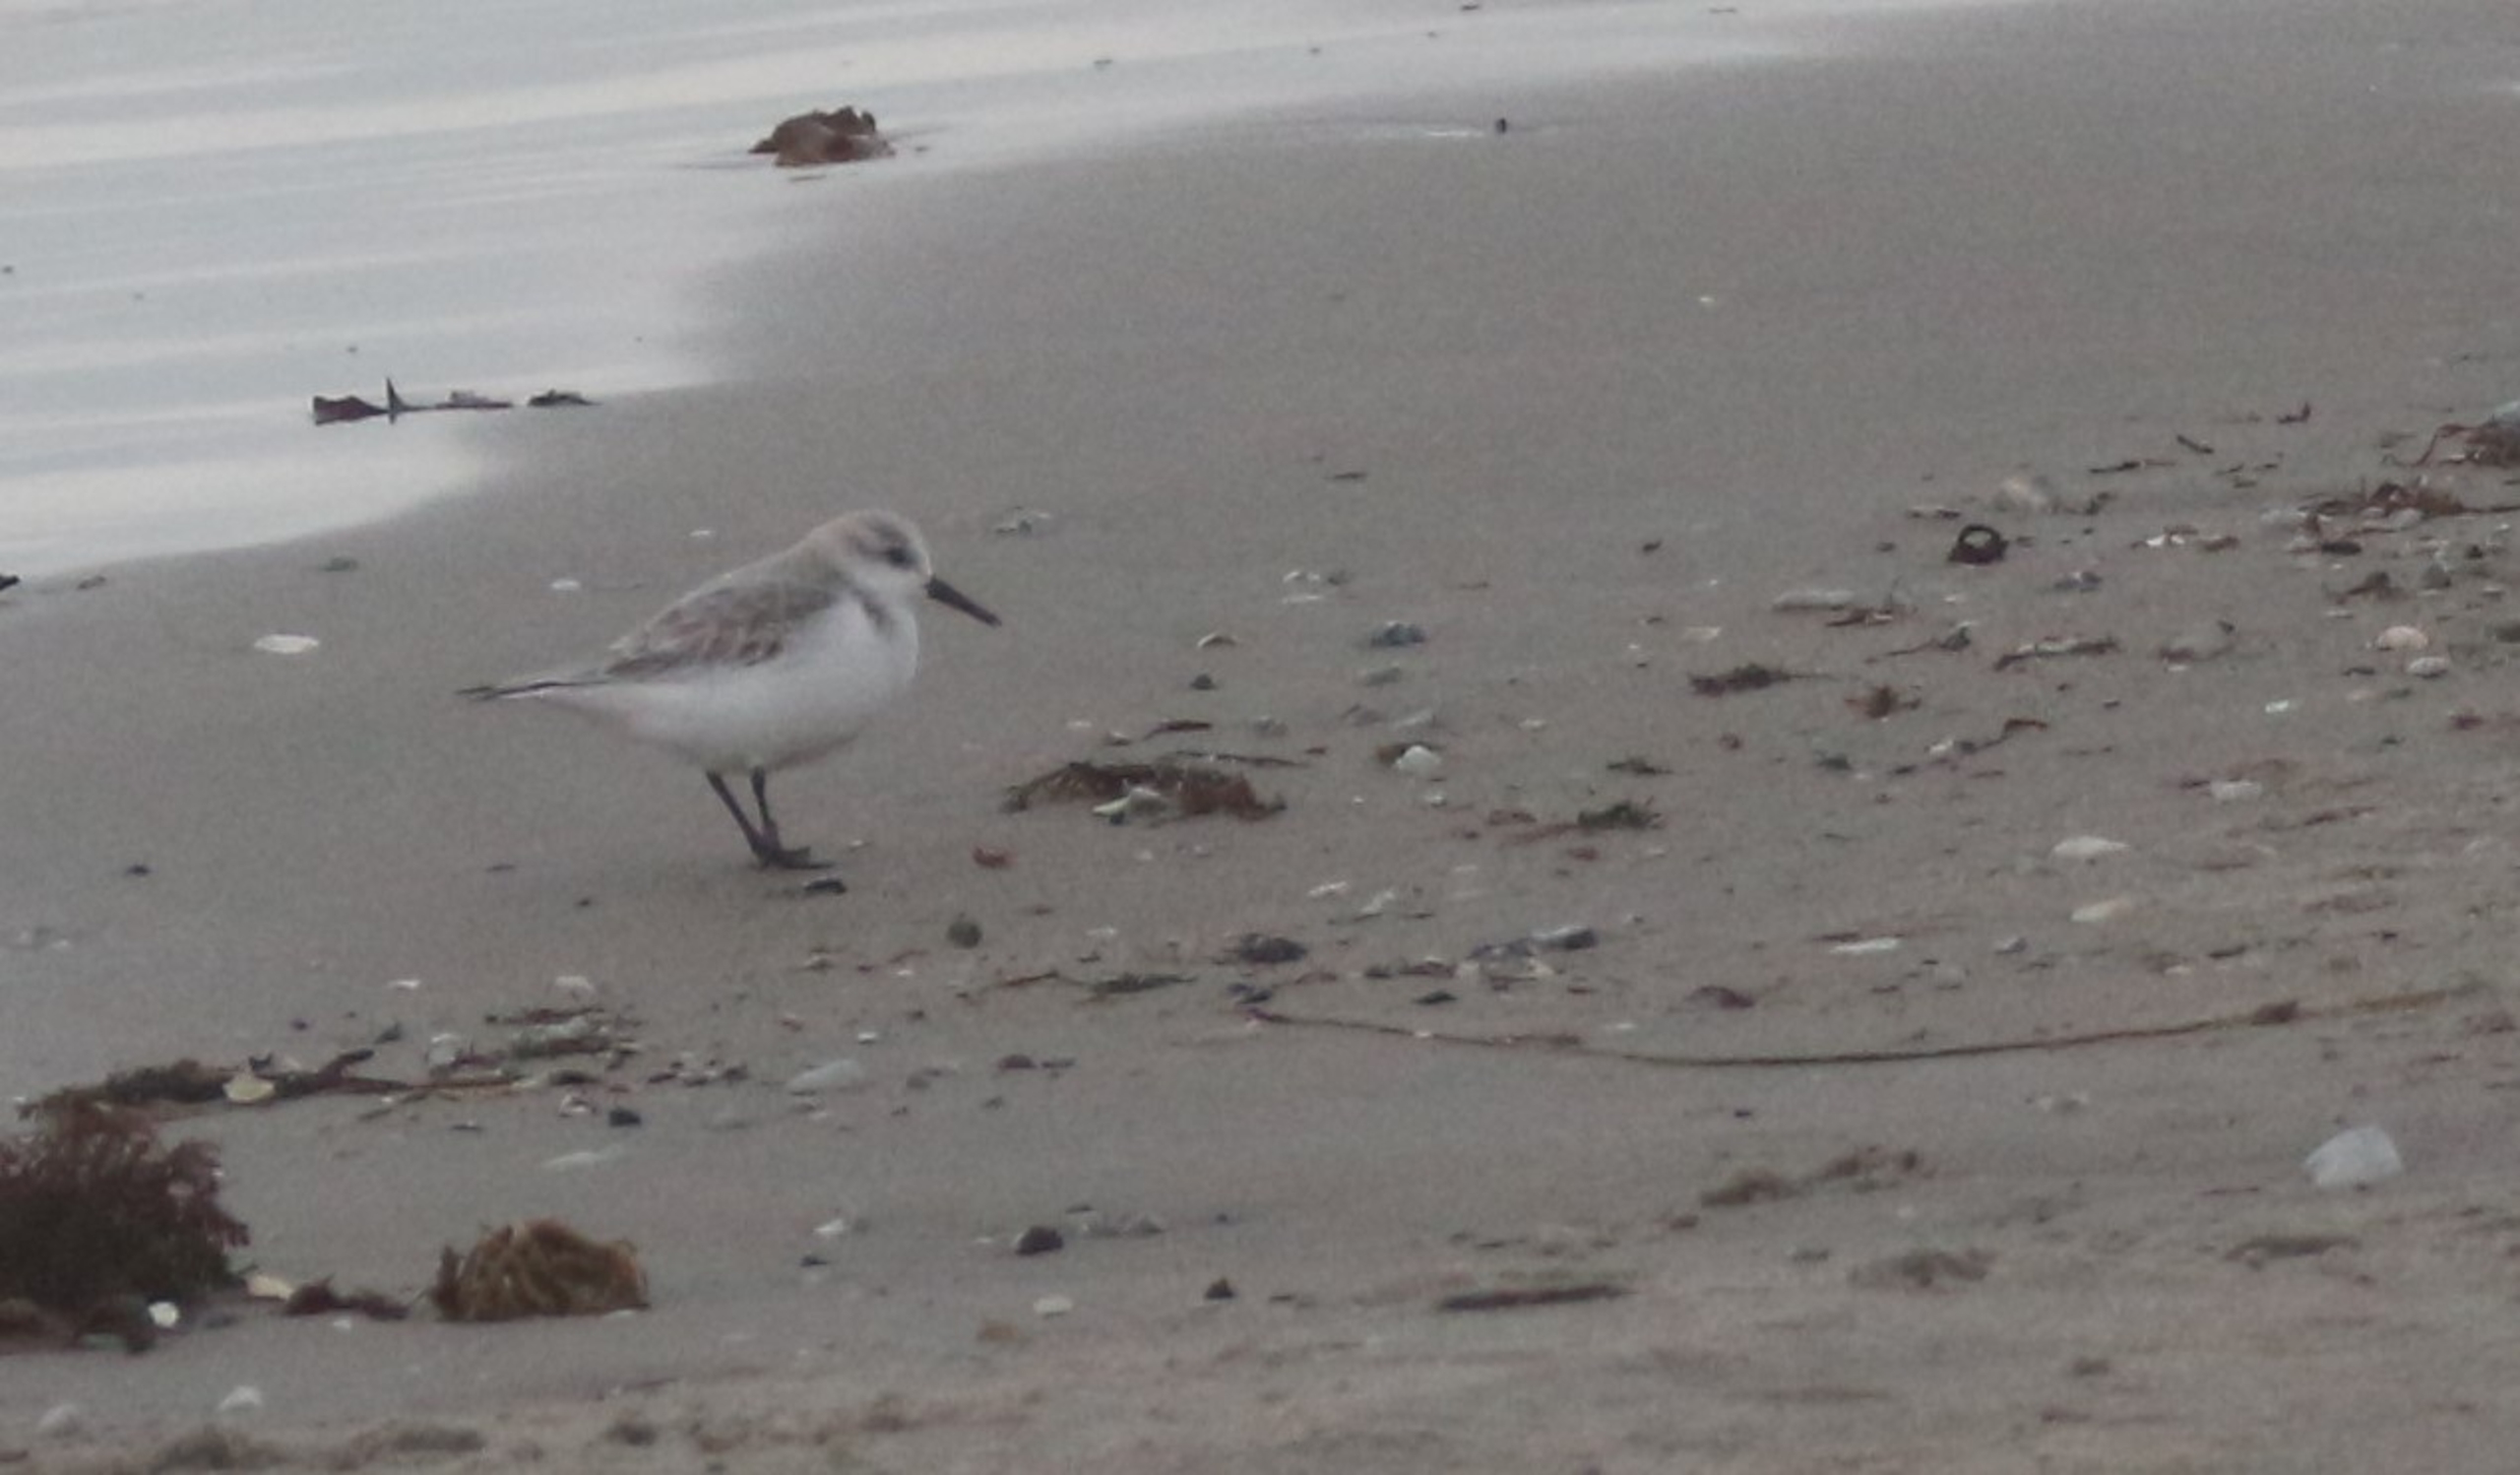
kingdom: Animalia
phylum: Chordata
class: Aves
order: Charadriiformes
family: Scolopacidae
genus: Calidris
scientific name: Calidris alba
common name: Sandløber
